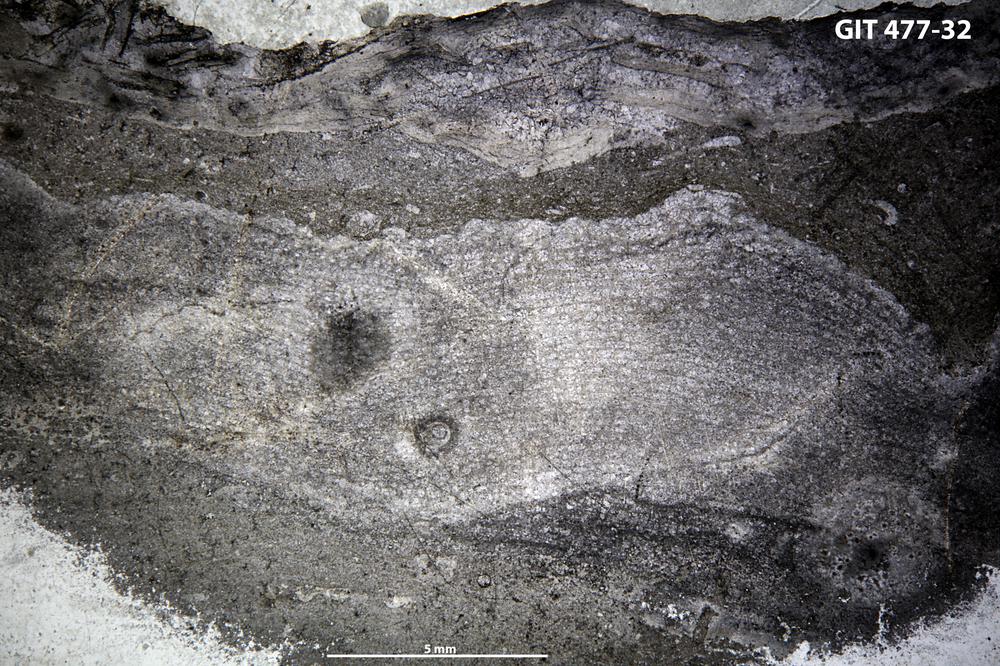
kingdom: Animalia
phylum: Porifera
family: Stromatoporellidae
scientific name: Stromatoporellidae
